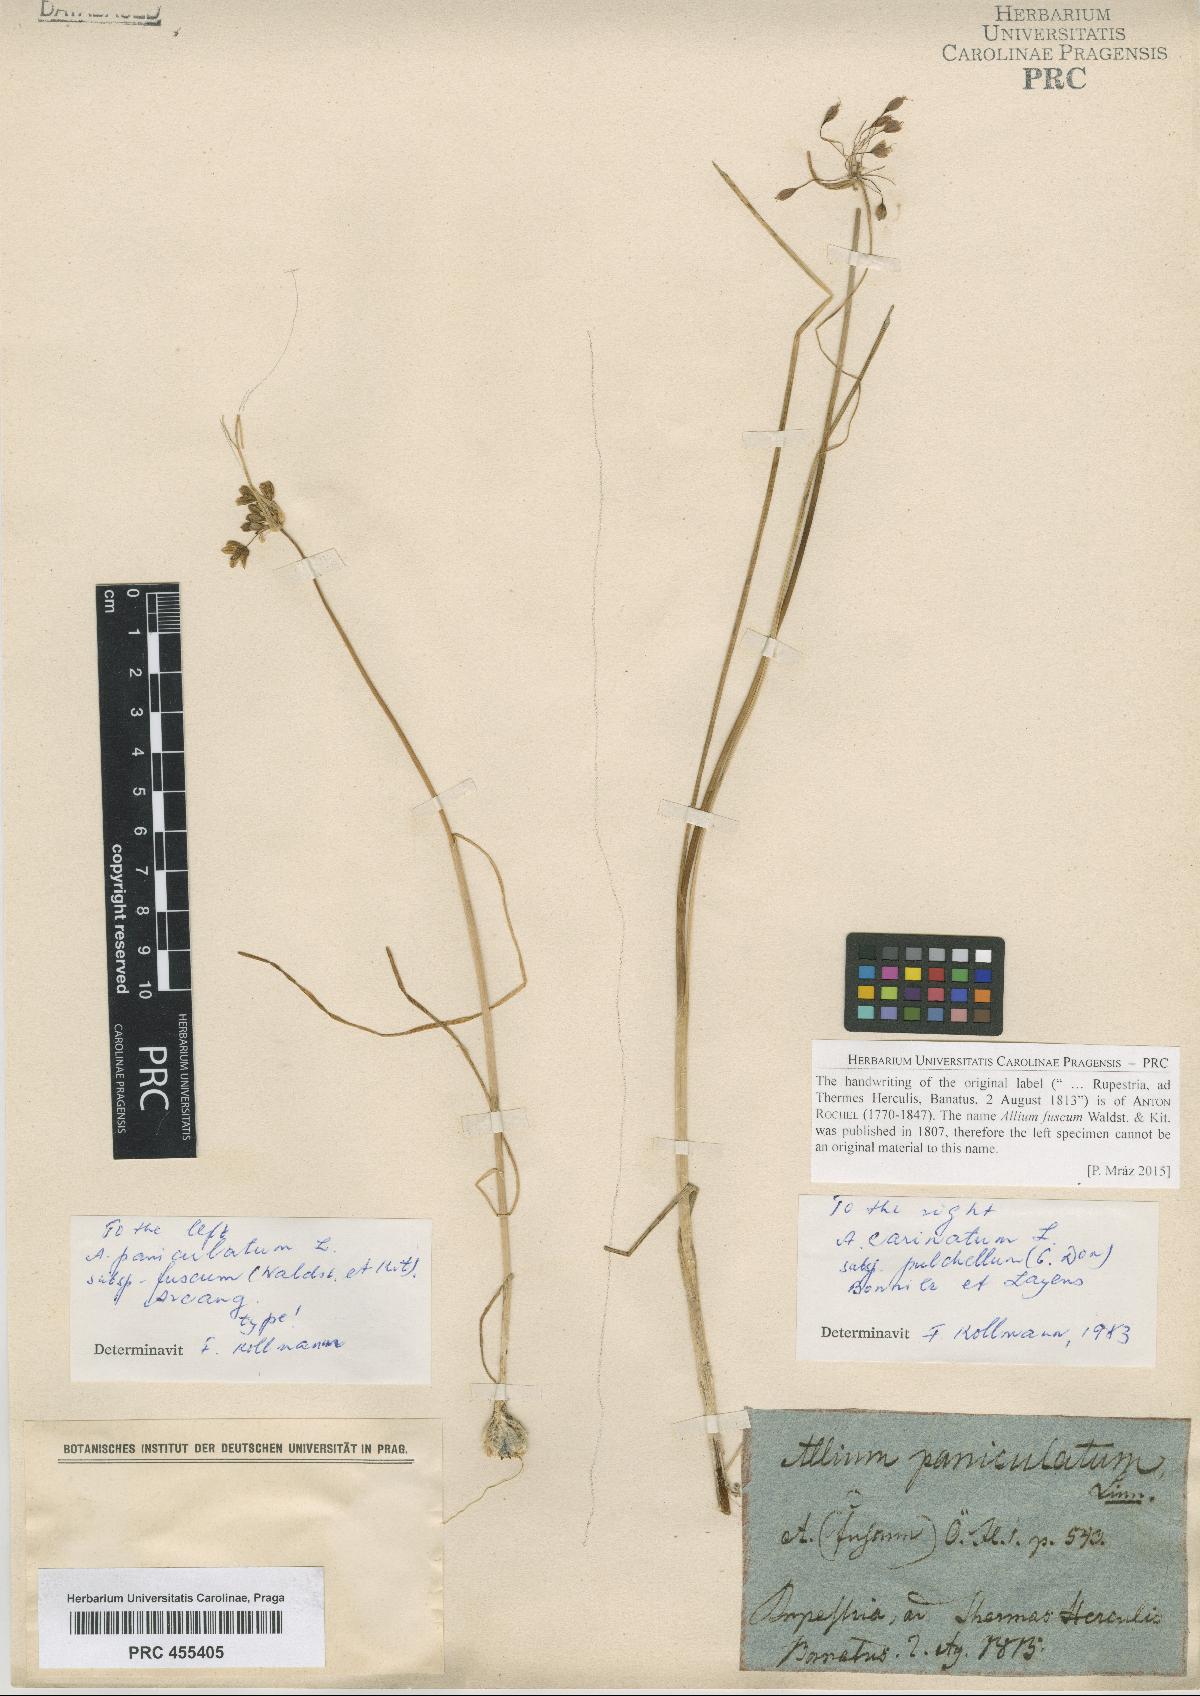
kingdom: Plantae
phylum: Tracheophyta
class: Liliopsida
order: Asparagales
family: Amaryllidaceae
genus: Allium
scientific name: Allium paniculatum
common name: Pale garlic
